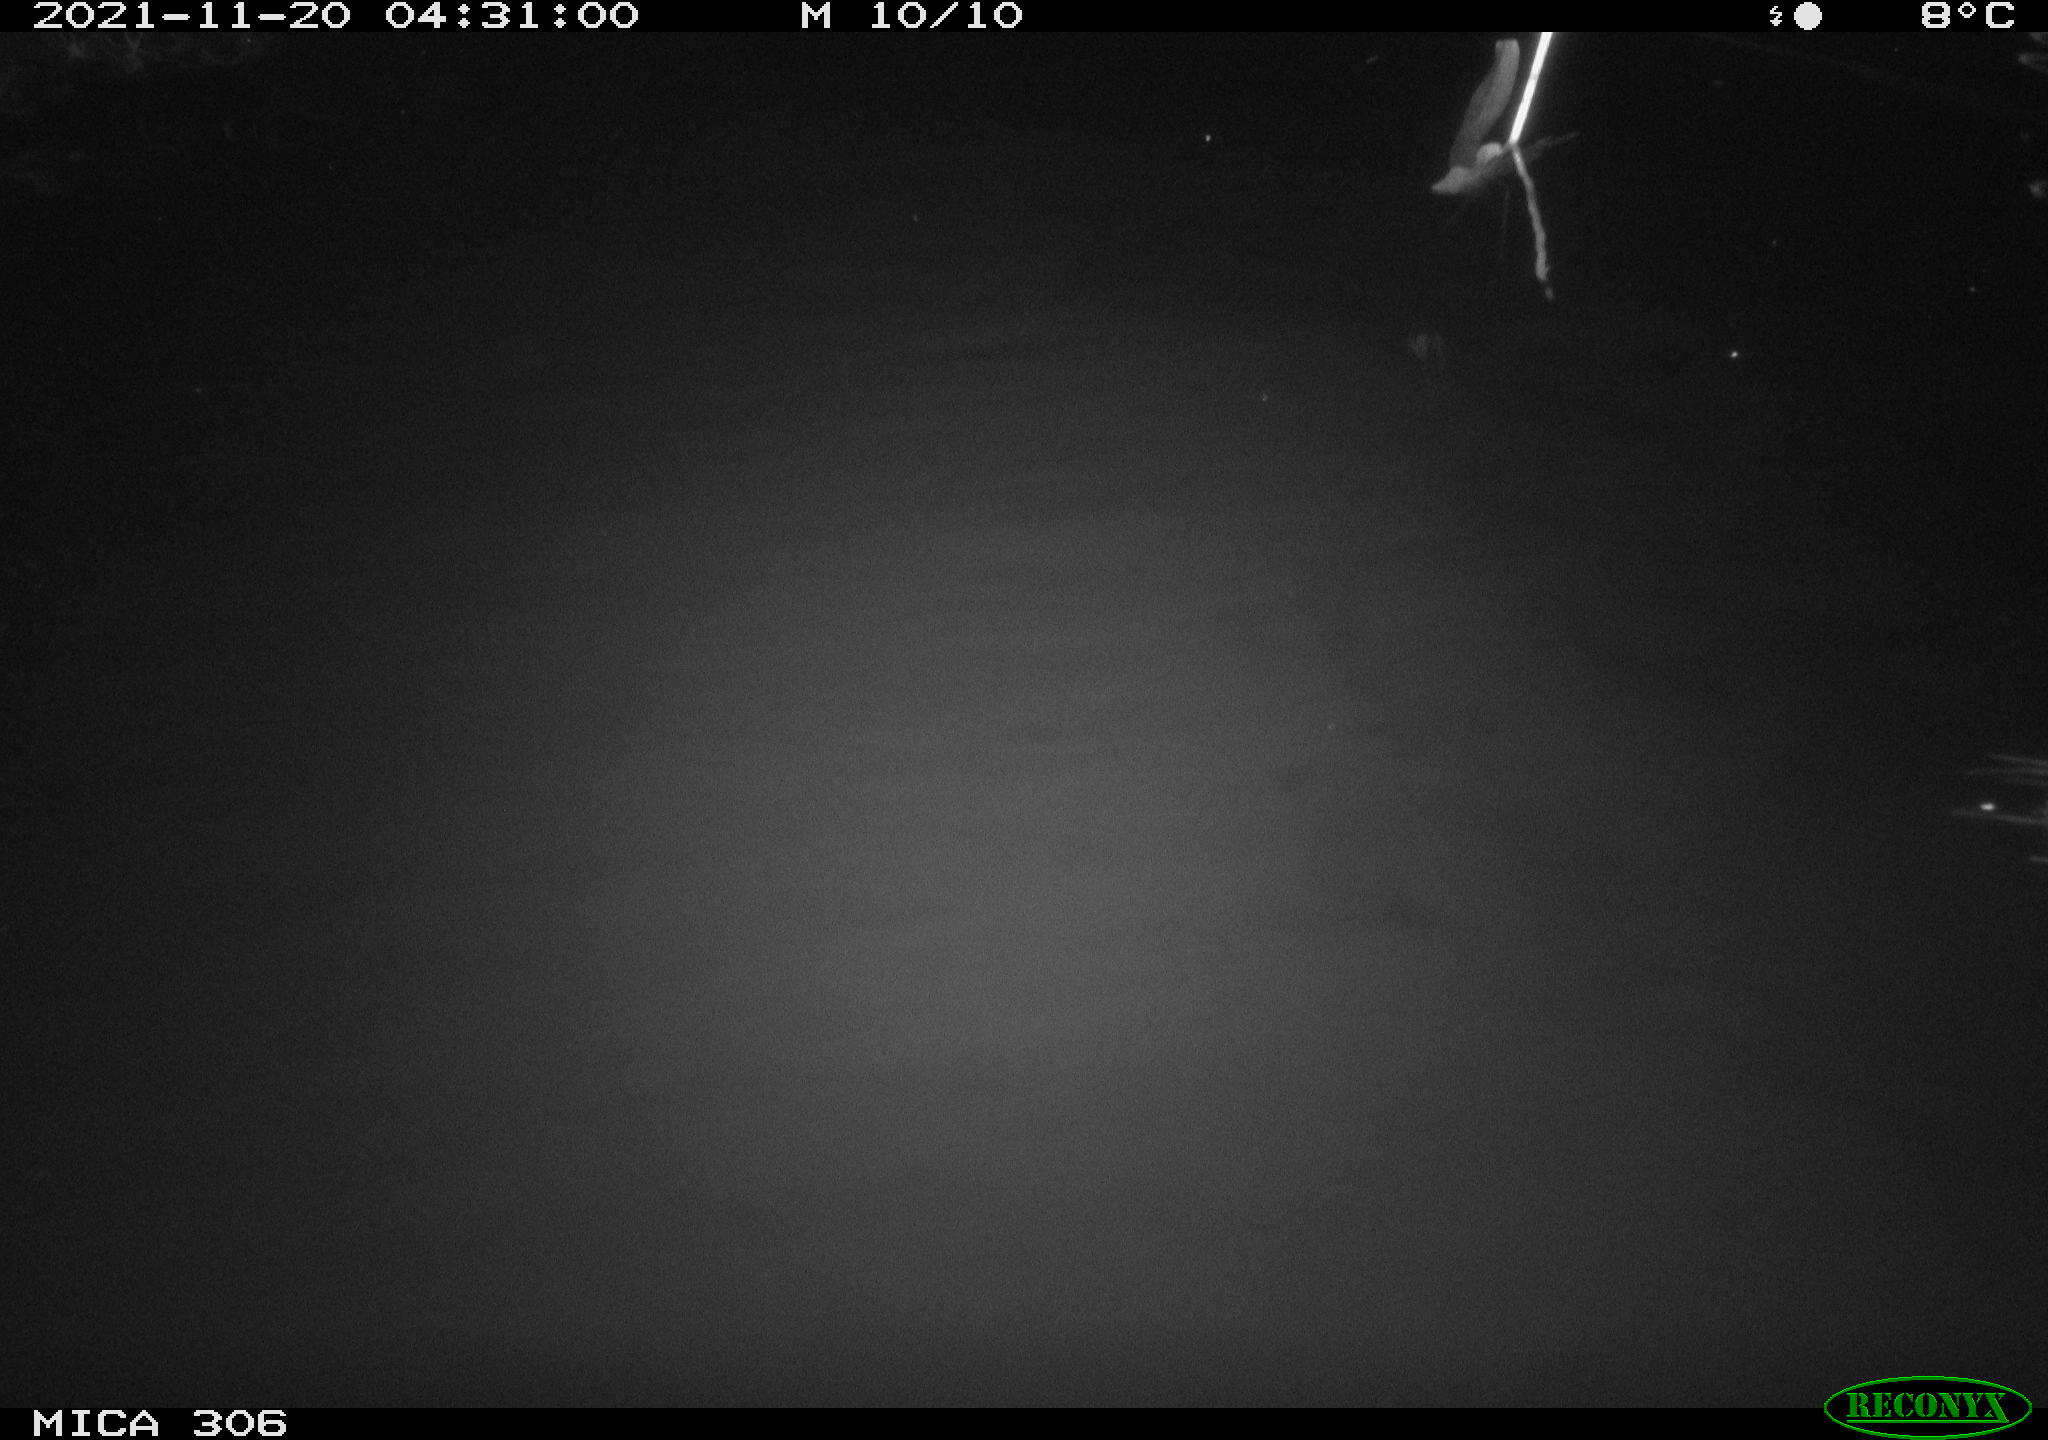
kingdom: Animalia
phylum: Chordata
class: Mammalia
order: Rodentia
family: Cricetidae
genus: Ondatra
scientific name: Ondatra zibethicus
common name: Muskrat
